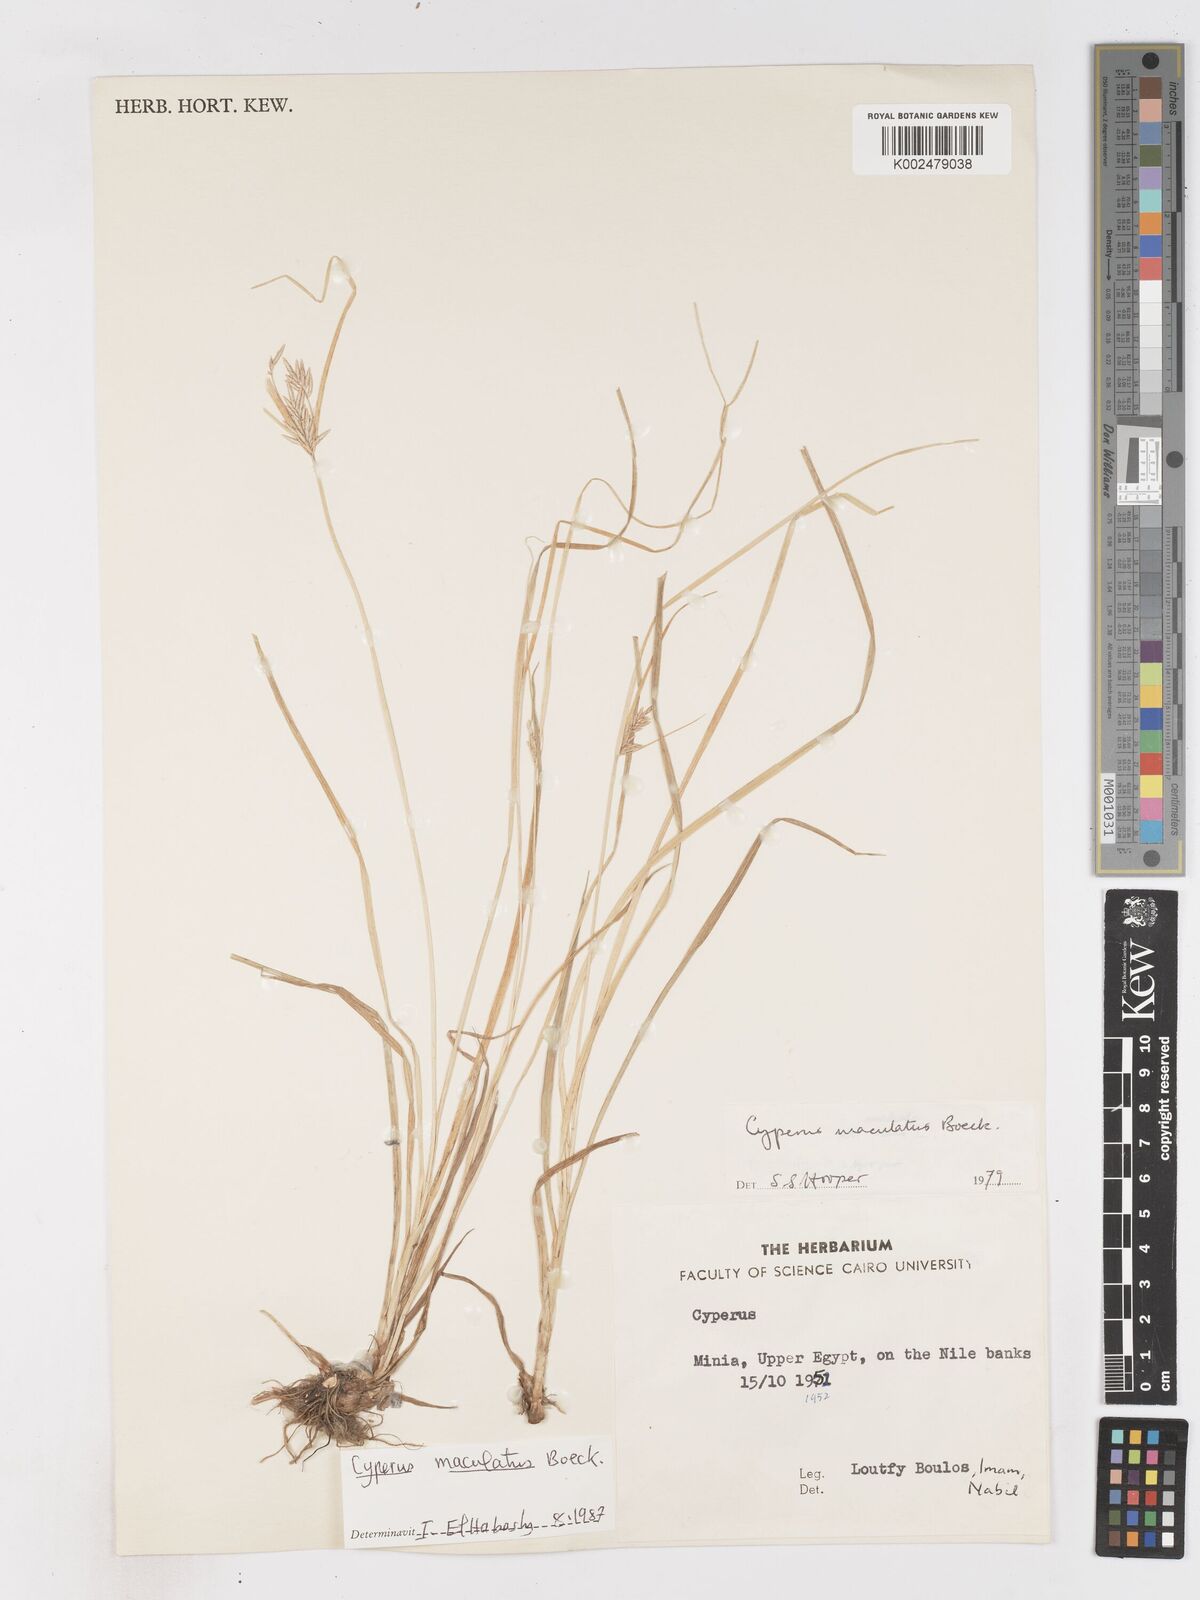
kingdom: Plantae
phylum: Tracheophyta
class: Liliopsida
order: Poales
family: Cyperaceae
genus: Cyperus
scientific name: Cyperus maculatus
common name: Maculated sedge
